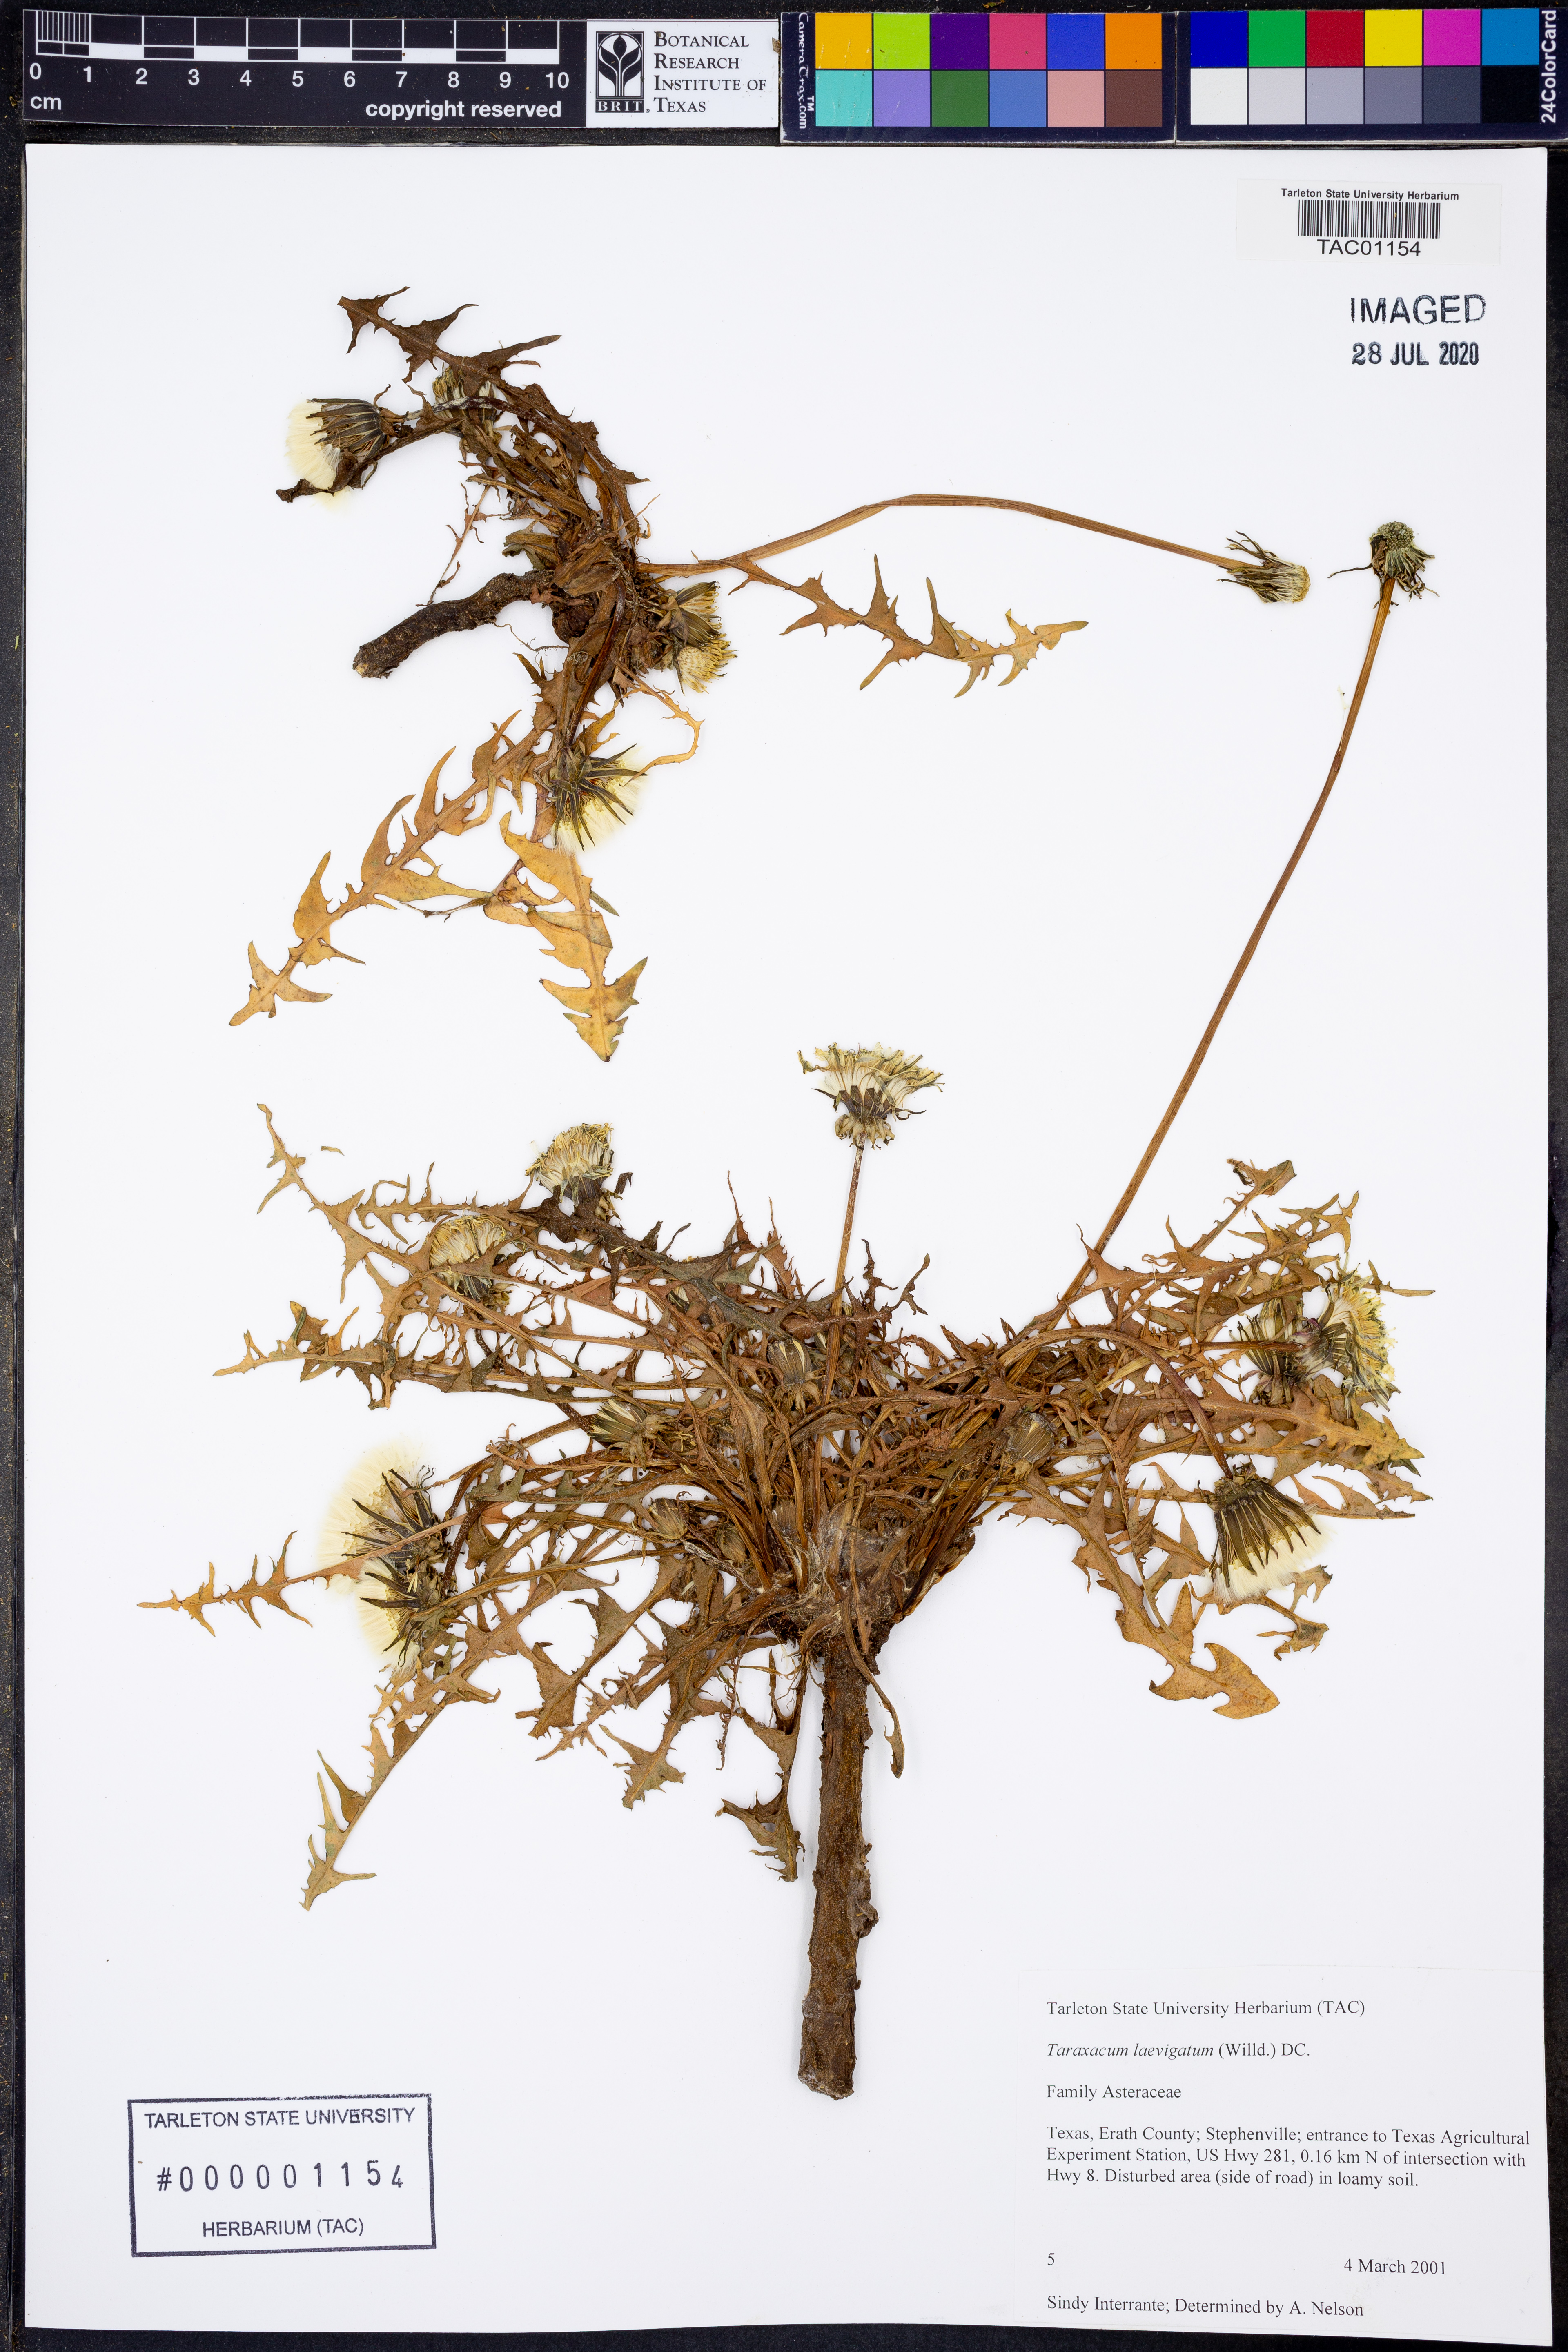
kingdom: Plantae
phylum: Tracheophyta
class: Magnoliopsida
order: Asterales
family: Asteraceae
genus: Taraxacum
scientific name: Taraxacum erythrospermum
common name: Rock dandelion
